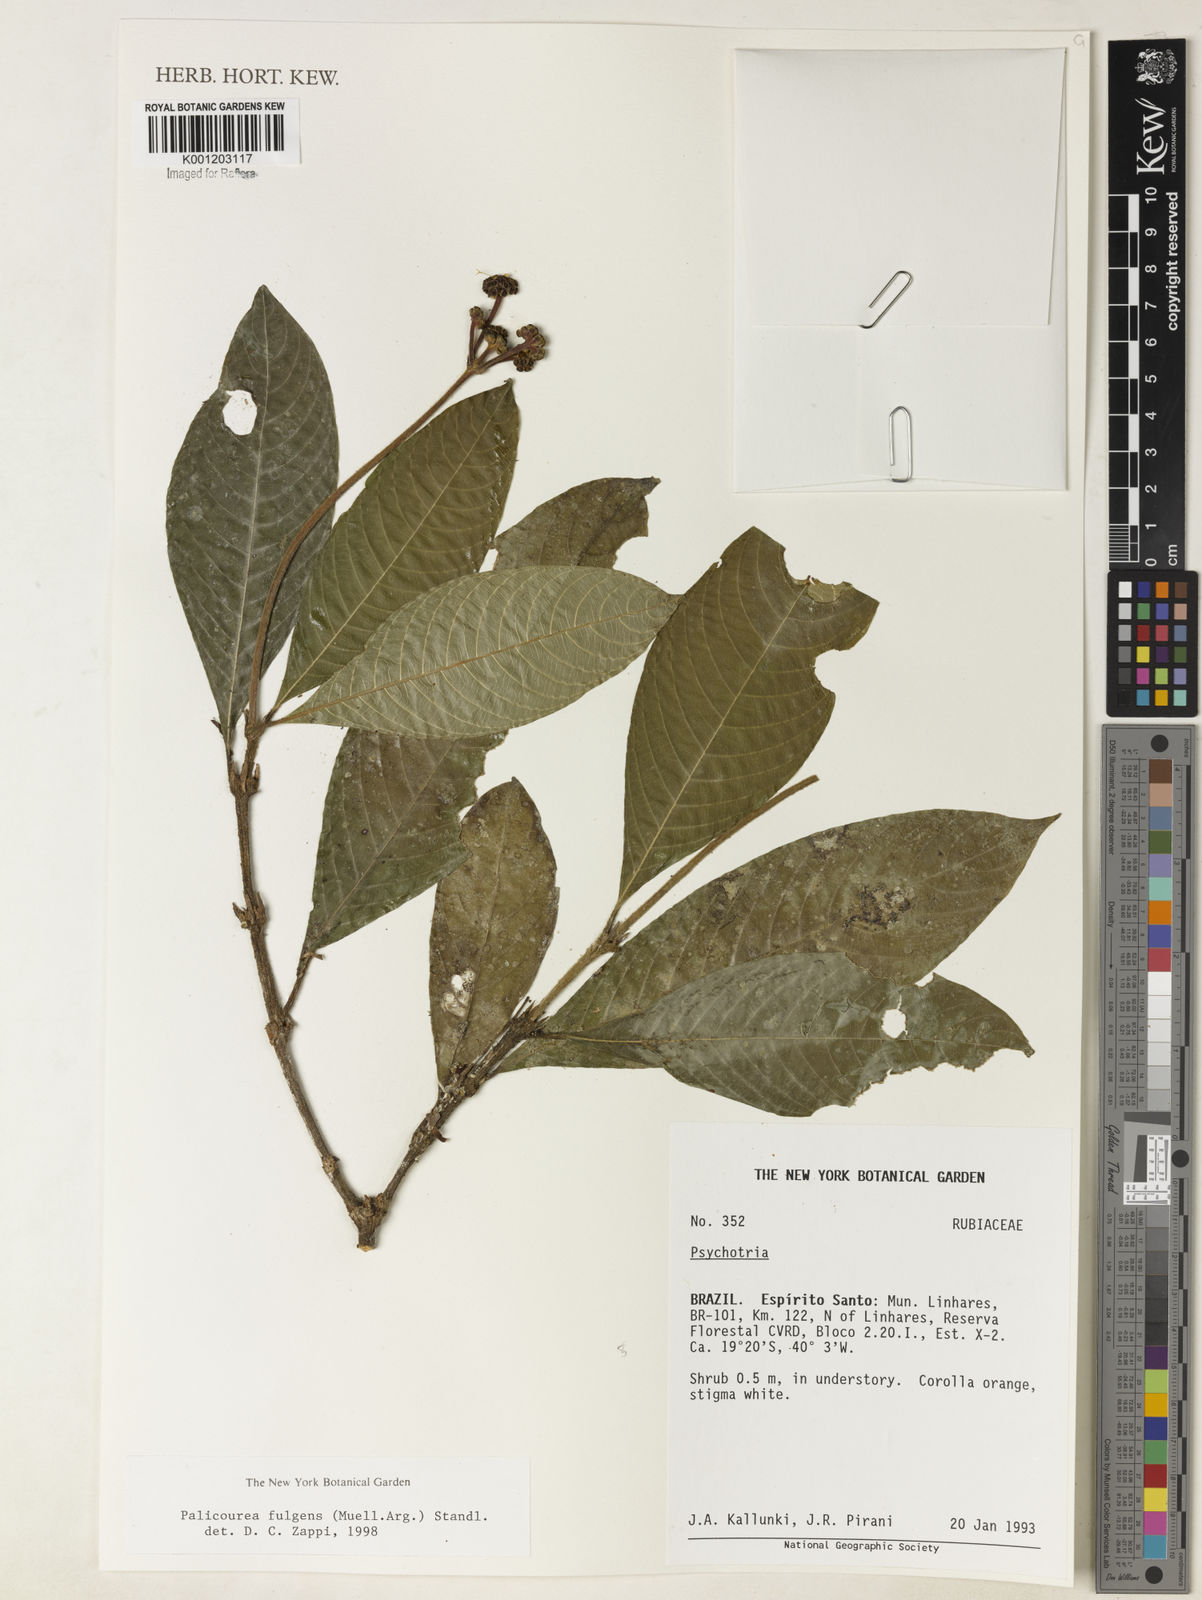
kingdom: Plantae
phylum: Tracheophyta
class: Magnoliopsida
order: Gentianales
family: Rubiaceae
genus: Palicourea
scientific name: Palicourea
